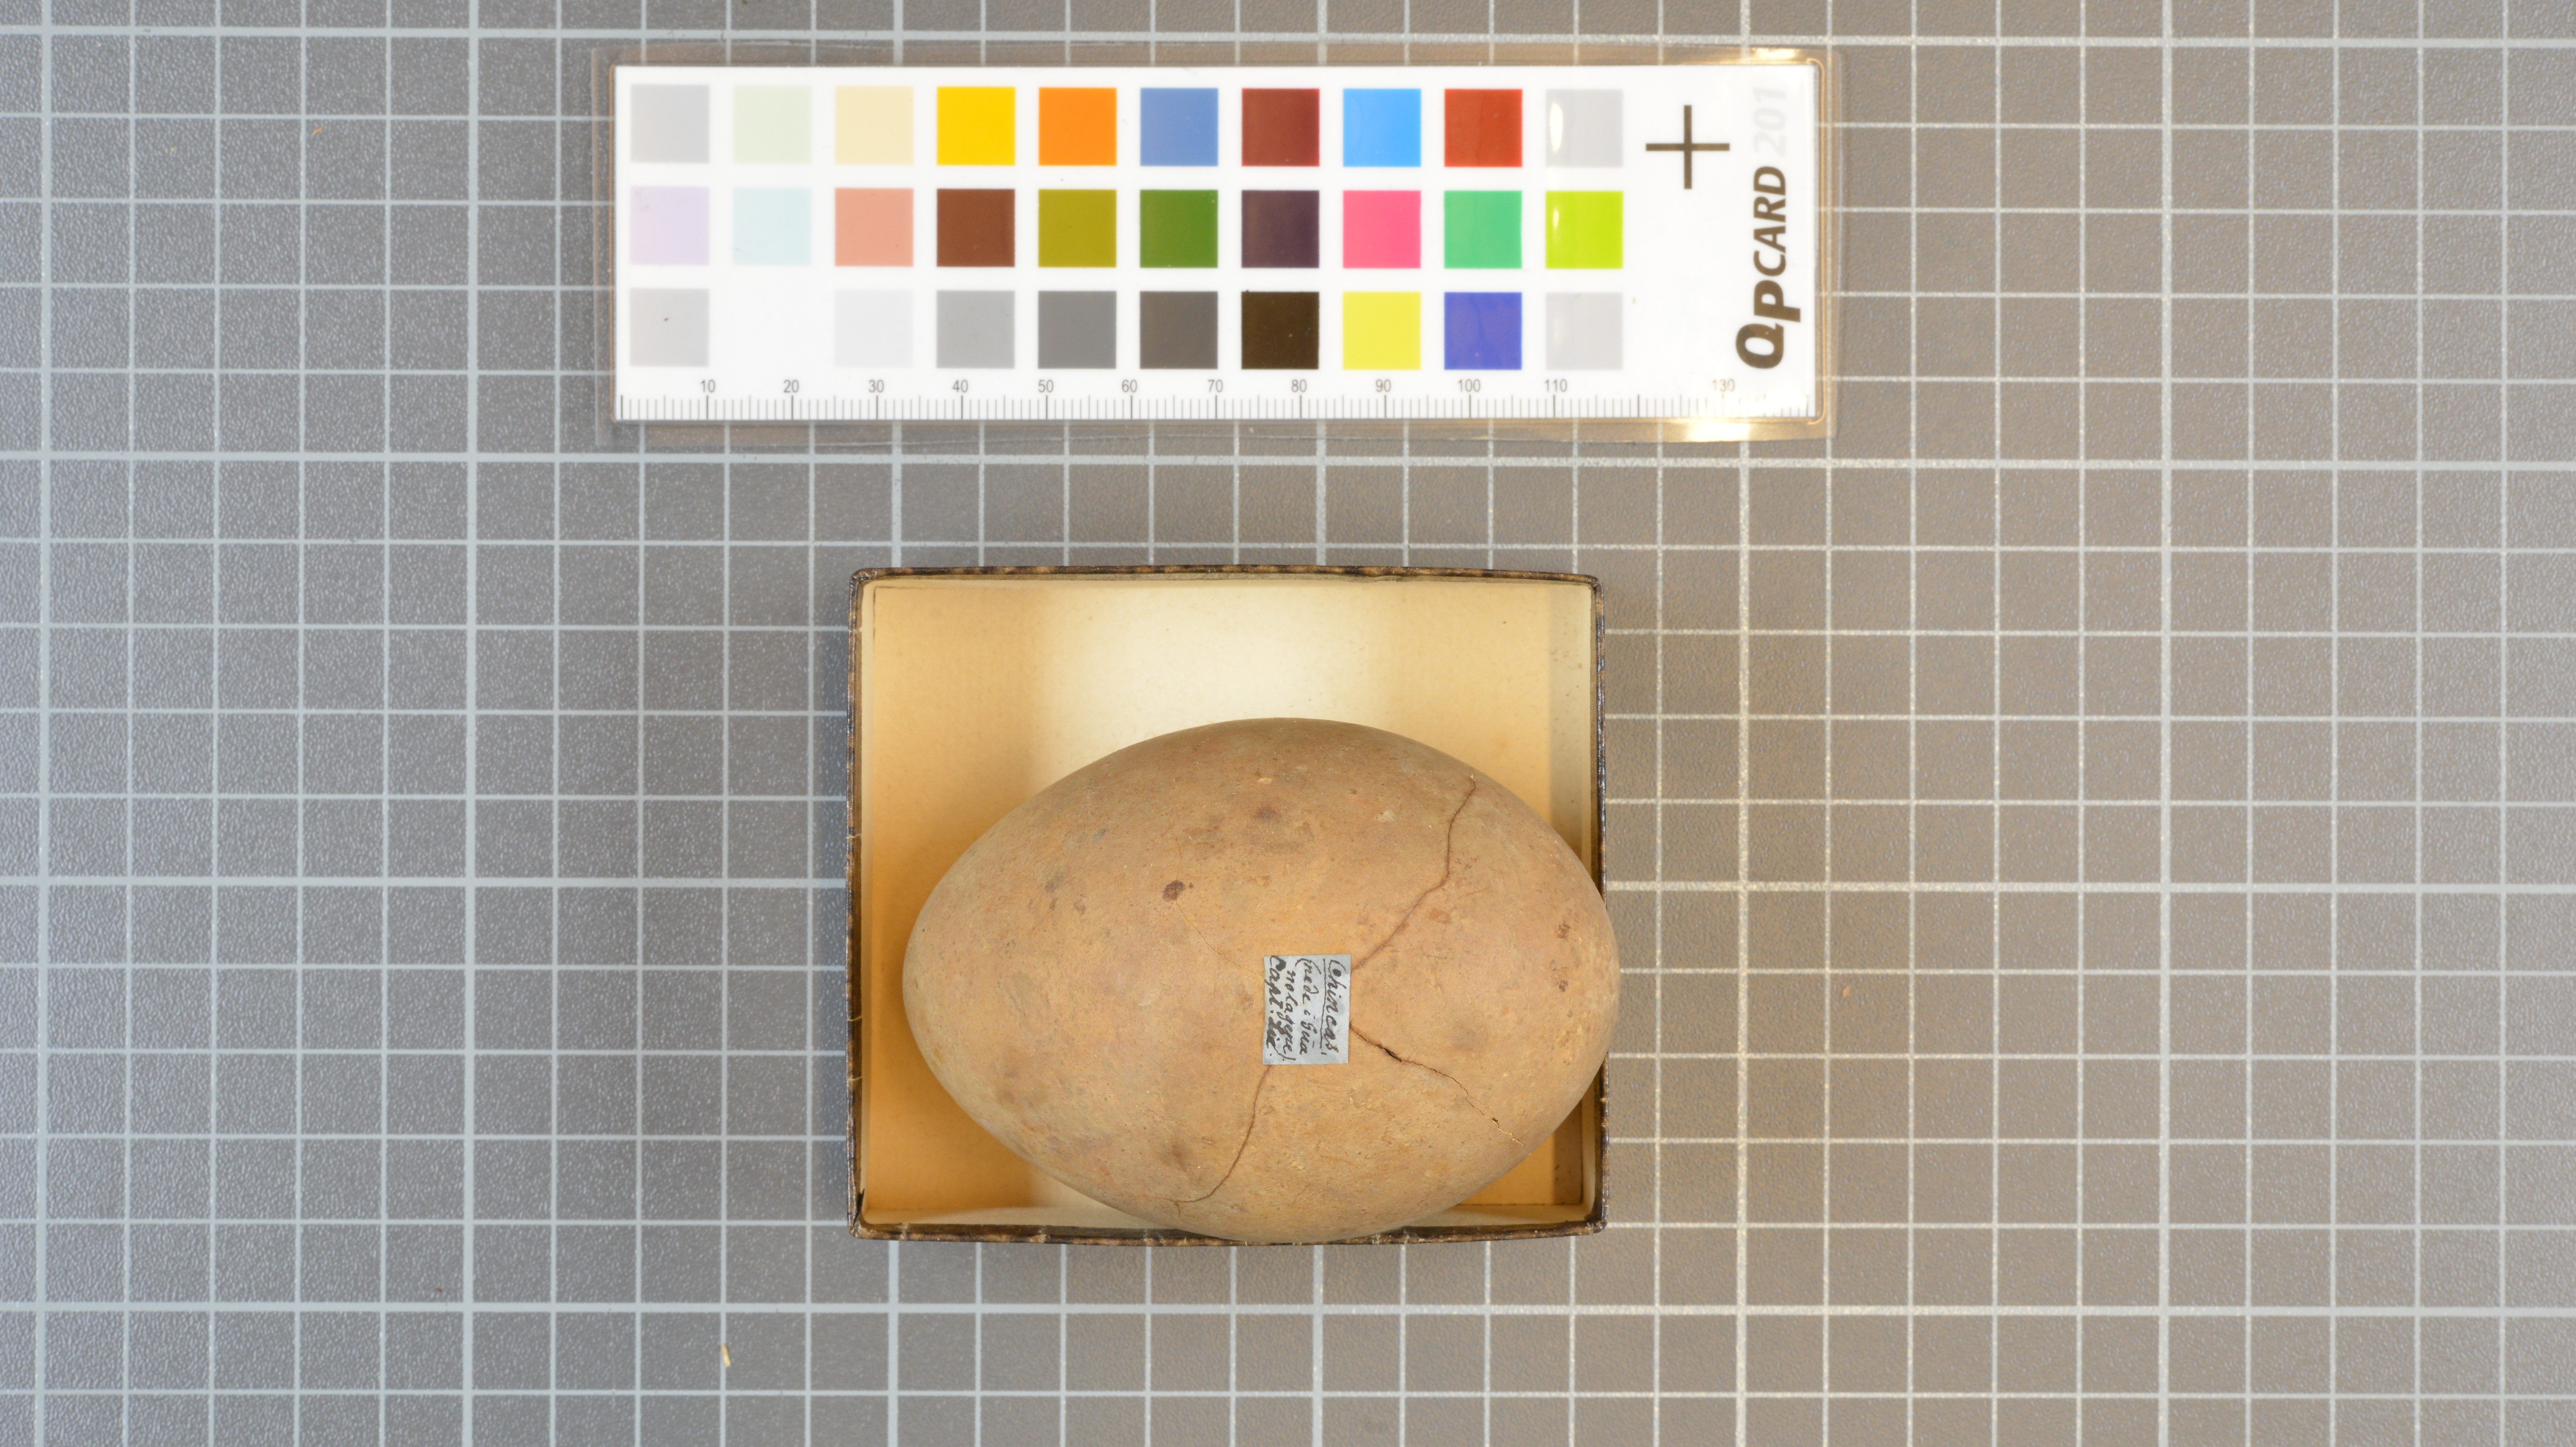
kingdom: Animalia
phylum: Chordata
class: Aves
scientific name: Aves
